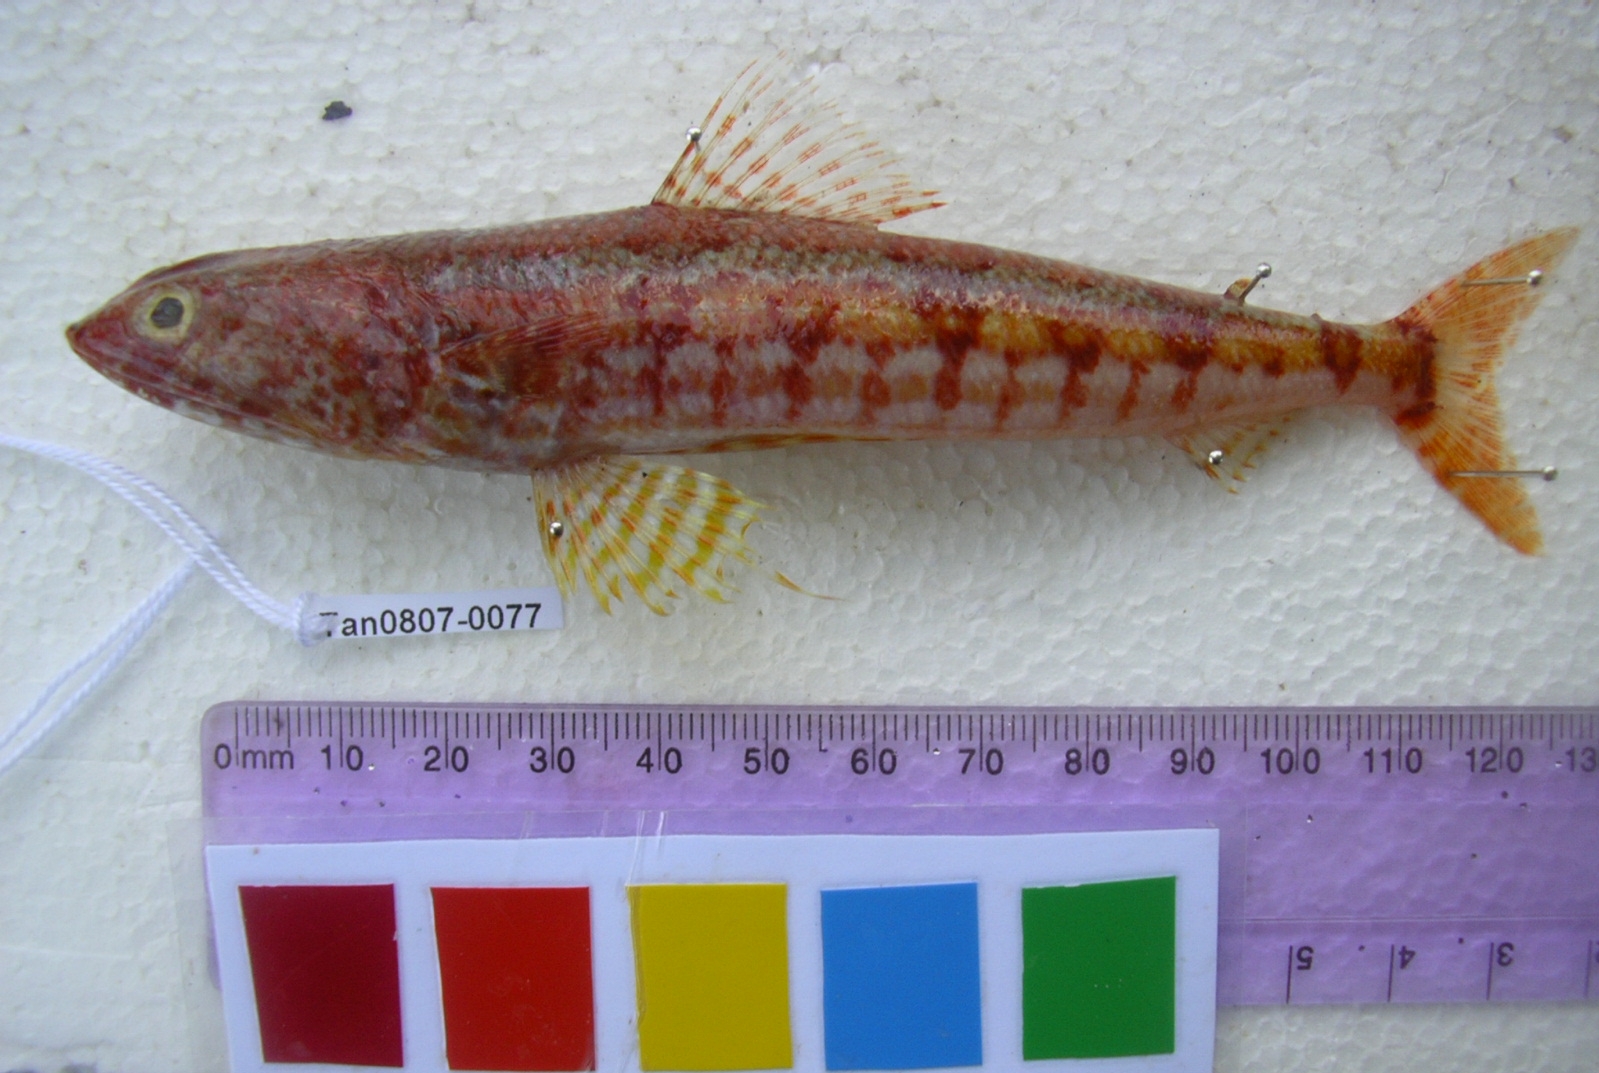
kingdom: Animalia
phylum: Chordata
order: Aulopiformes
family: Synodontidae
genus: Synodus
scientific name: Synodus randalli
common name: Randall's lizardfish
